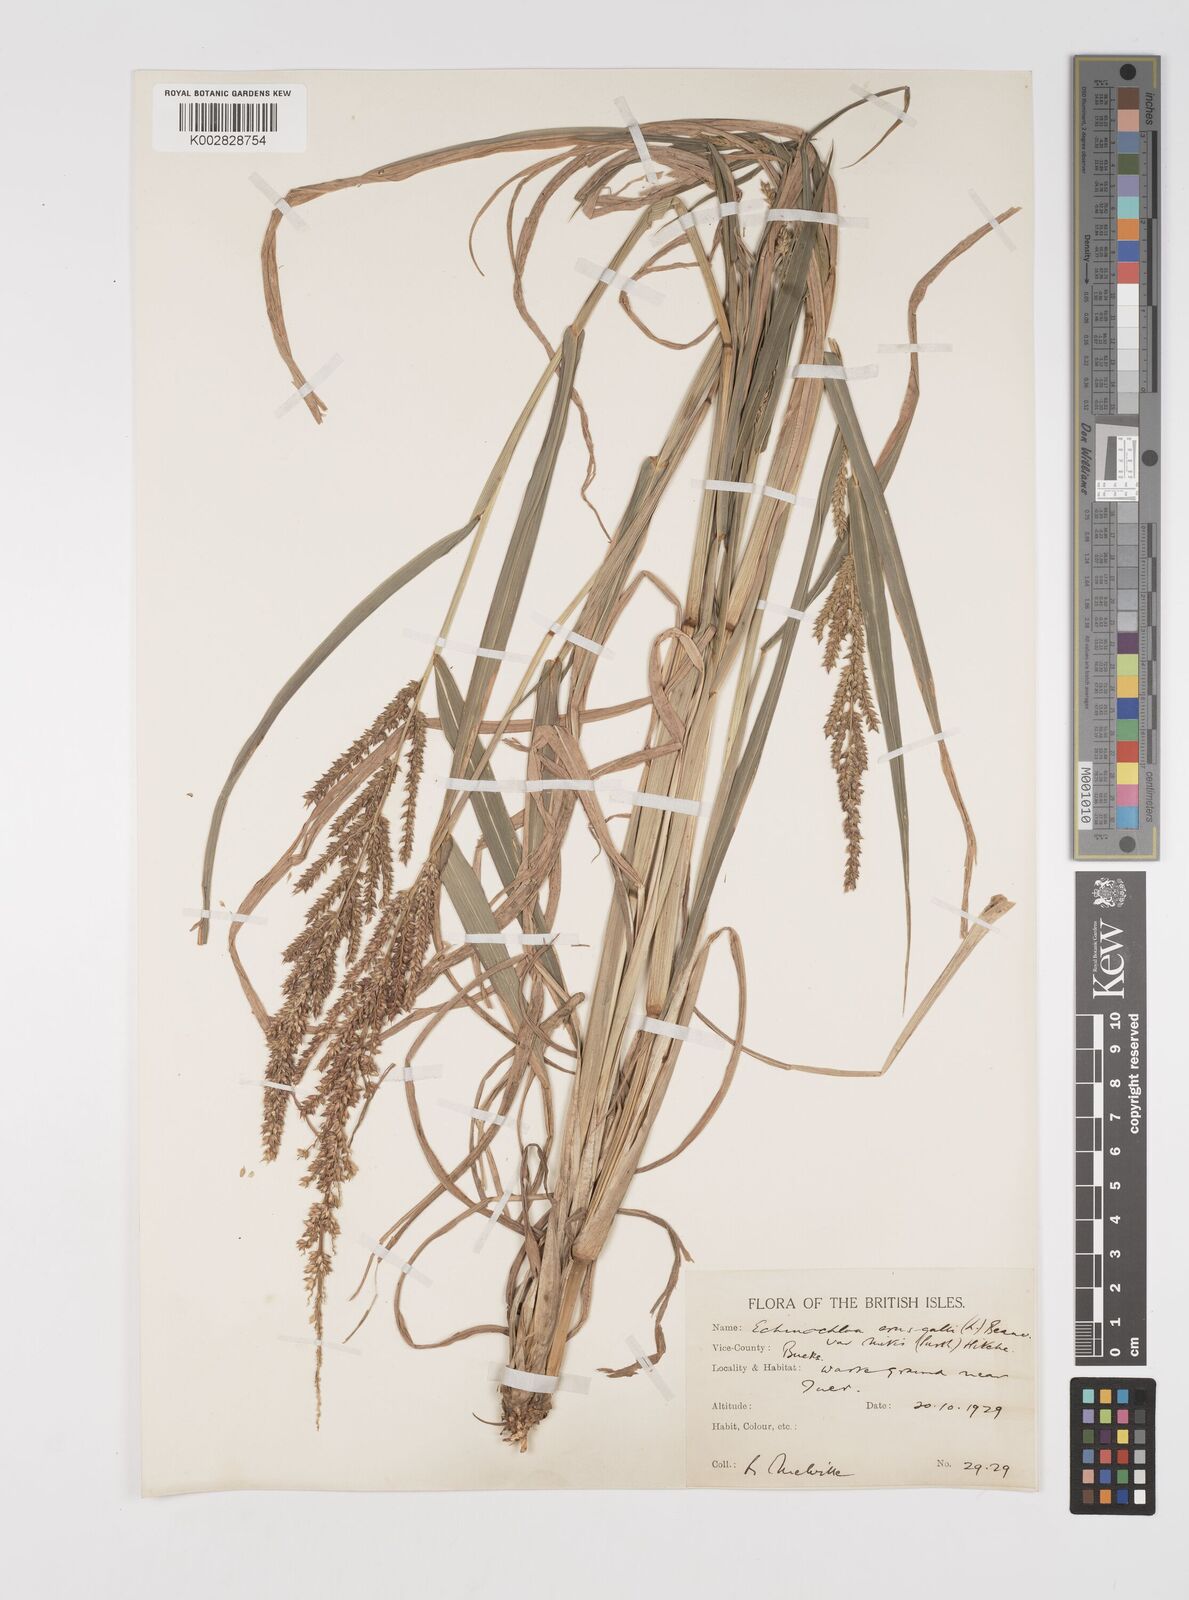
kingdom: Plantae
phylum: Tracheophyta
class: Liliopsida
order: Poales
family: Poaceae
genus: Echinochloa
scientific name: Echinochloa crus-galli
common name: Cockspur
